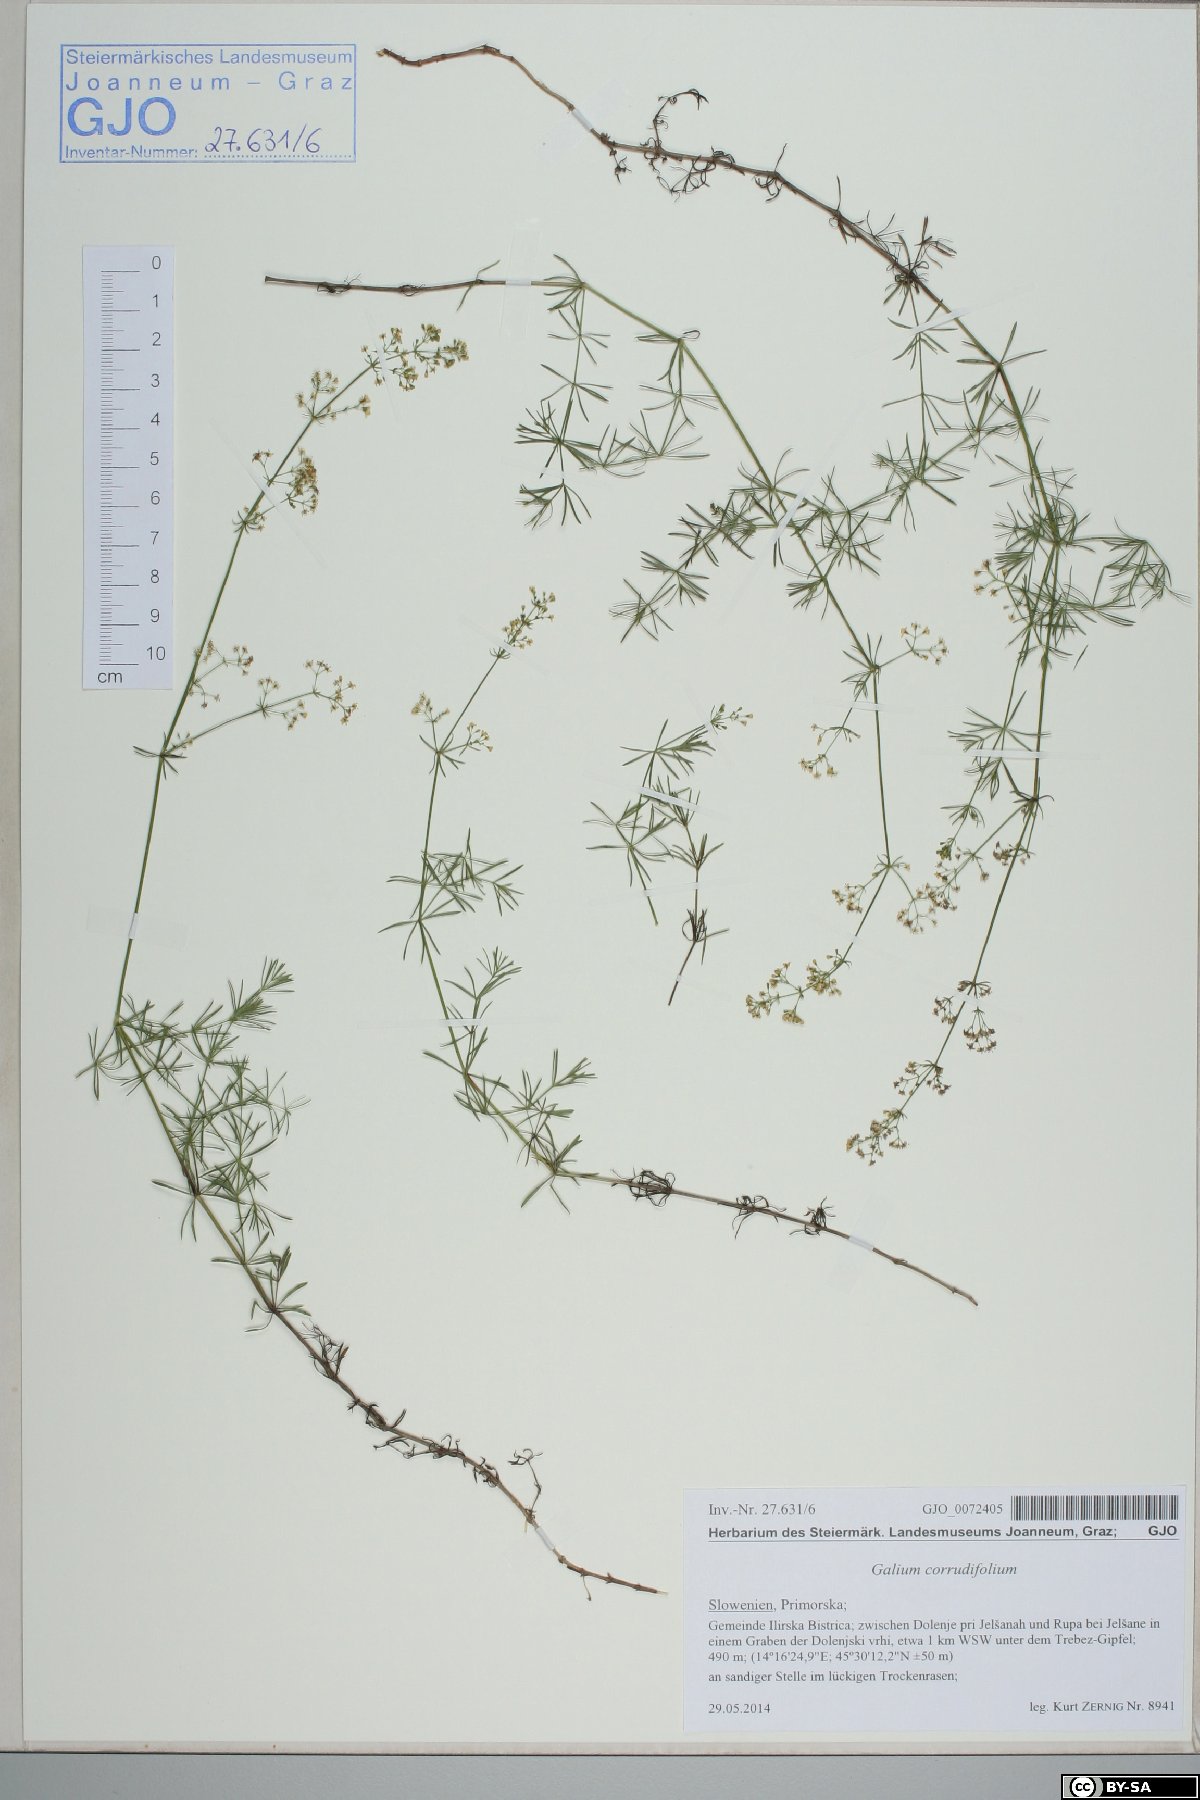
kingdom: Plantae
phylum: Tracheophyta
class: Magnoliopsida
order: Gentianales
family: Rubiaceae
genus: Galium
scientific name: Galium lucidum
